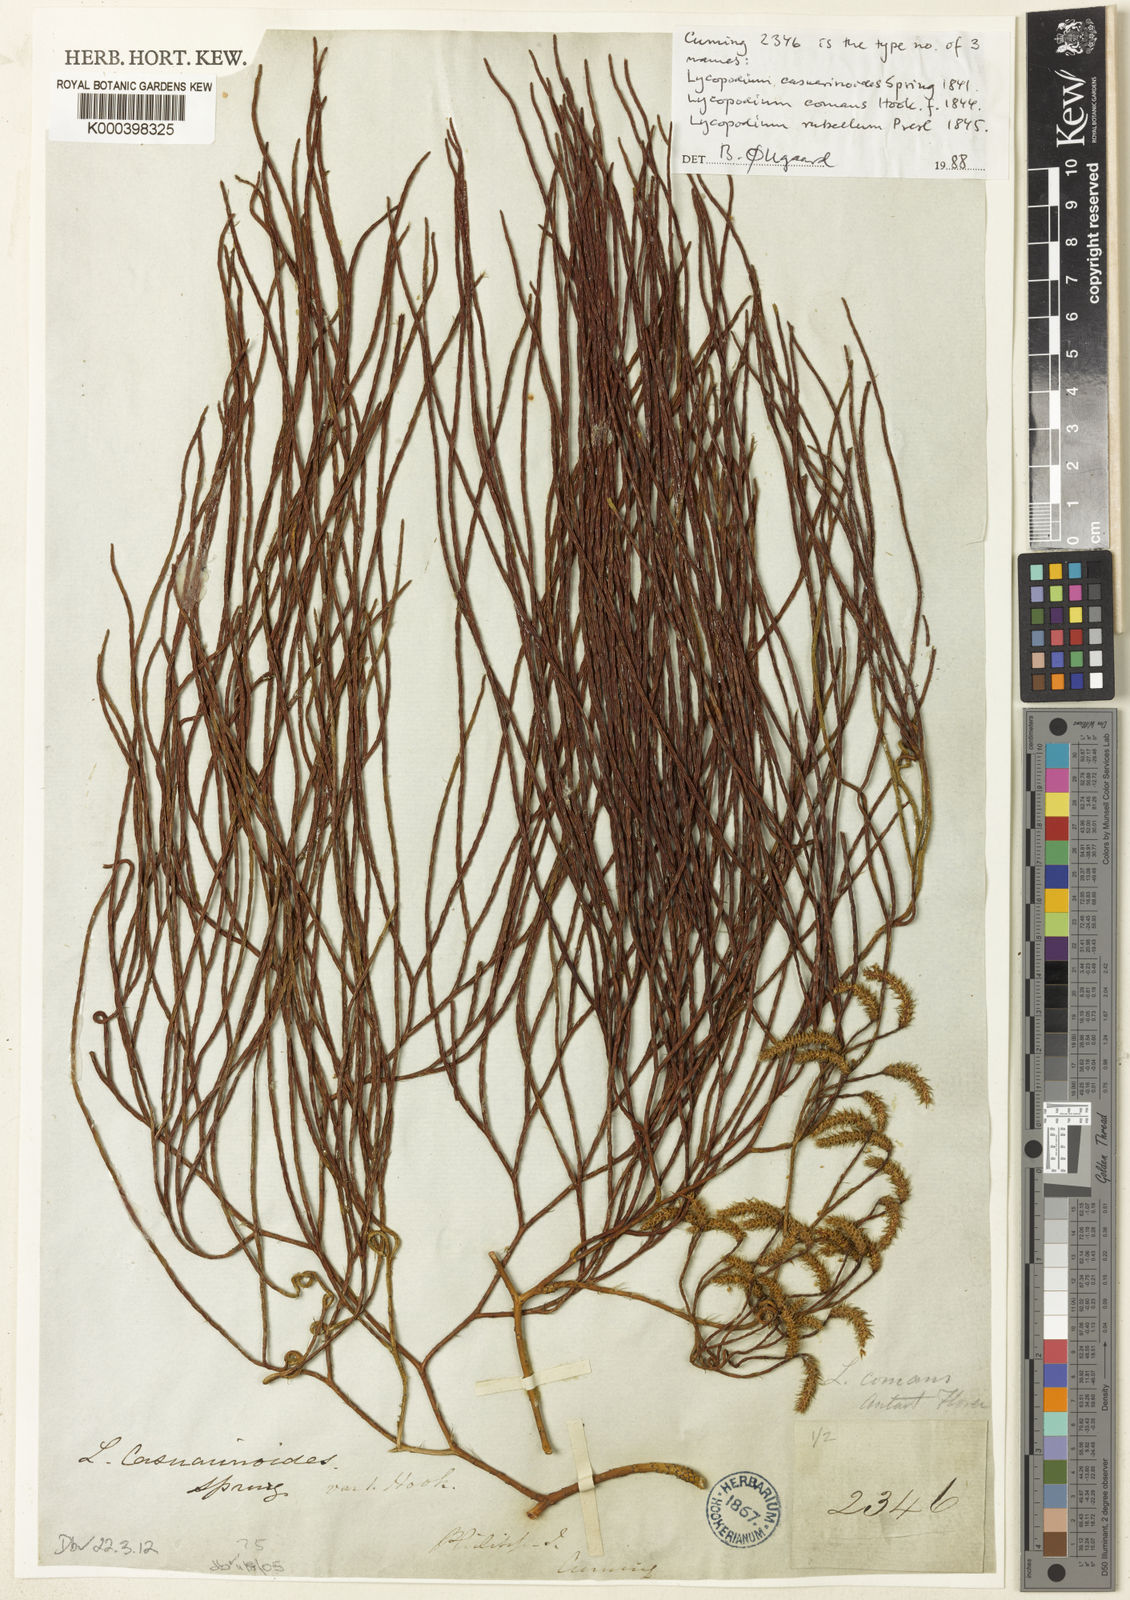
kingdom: Plantae
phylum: Tracheophyta
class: Lycopodiopsida
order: Lycopodiales
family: Lycopodiaceae
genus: Lycopodiastrum
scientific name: Lycopodiastrum casuarinoides
